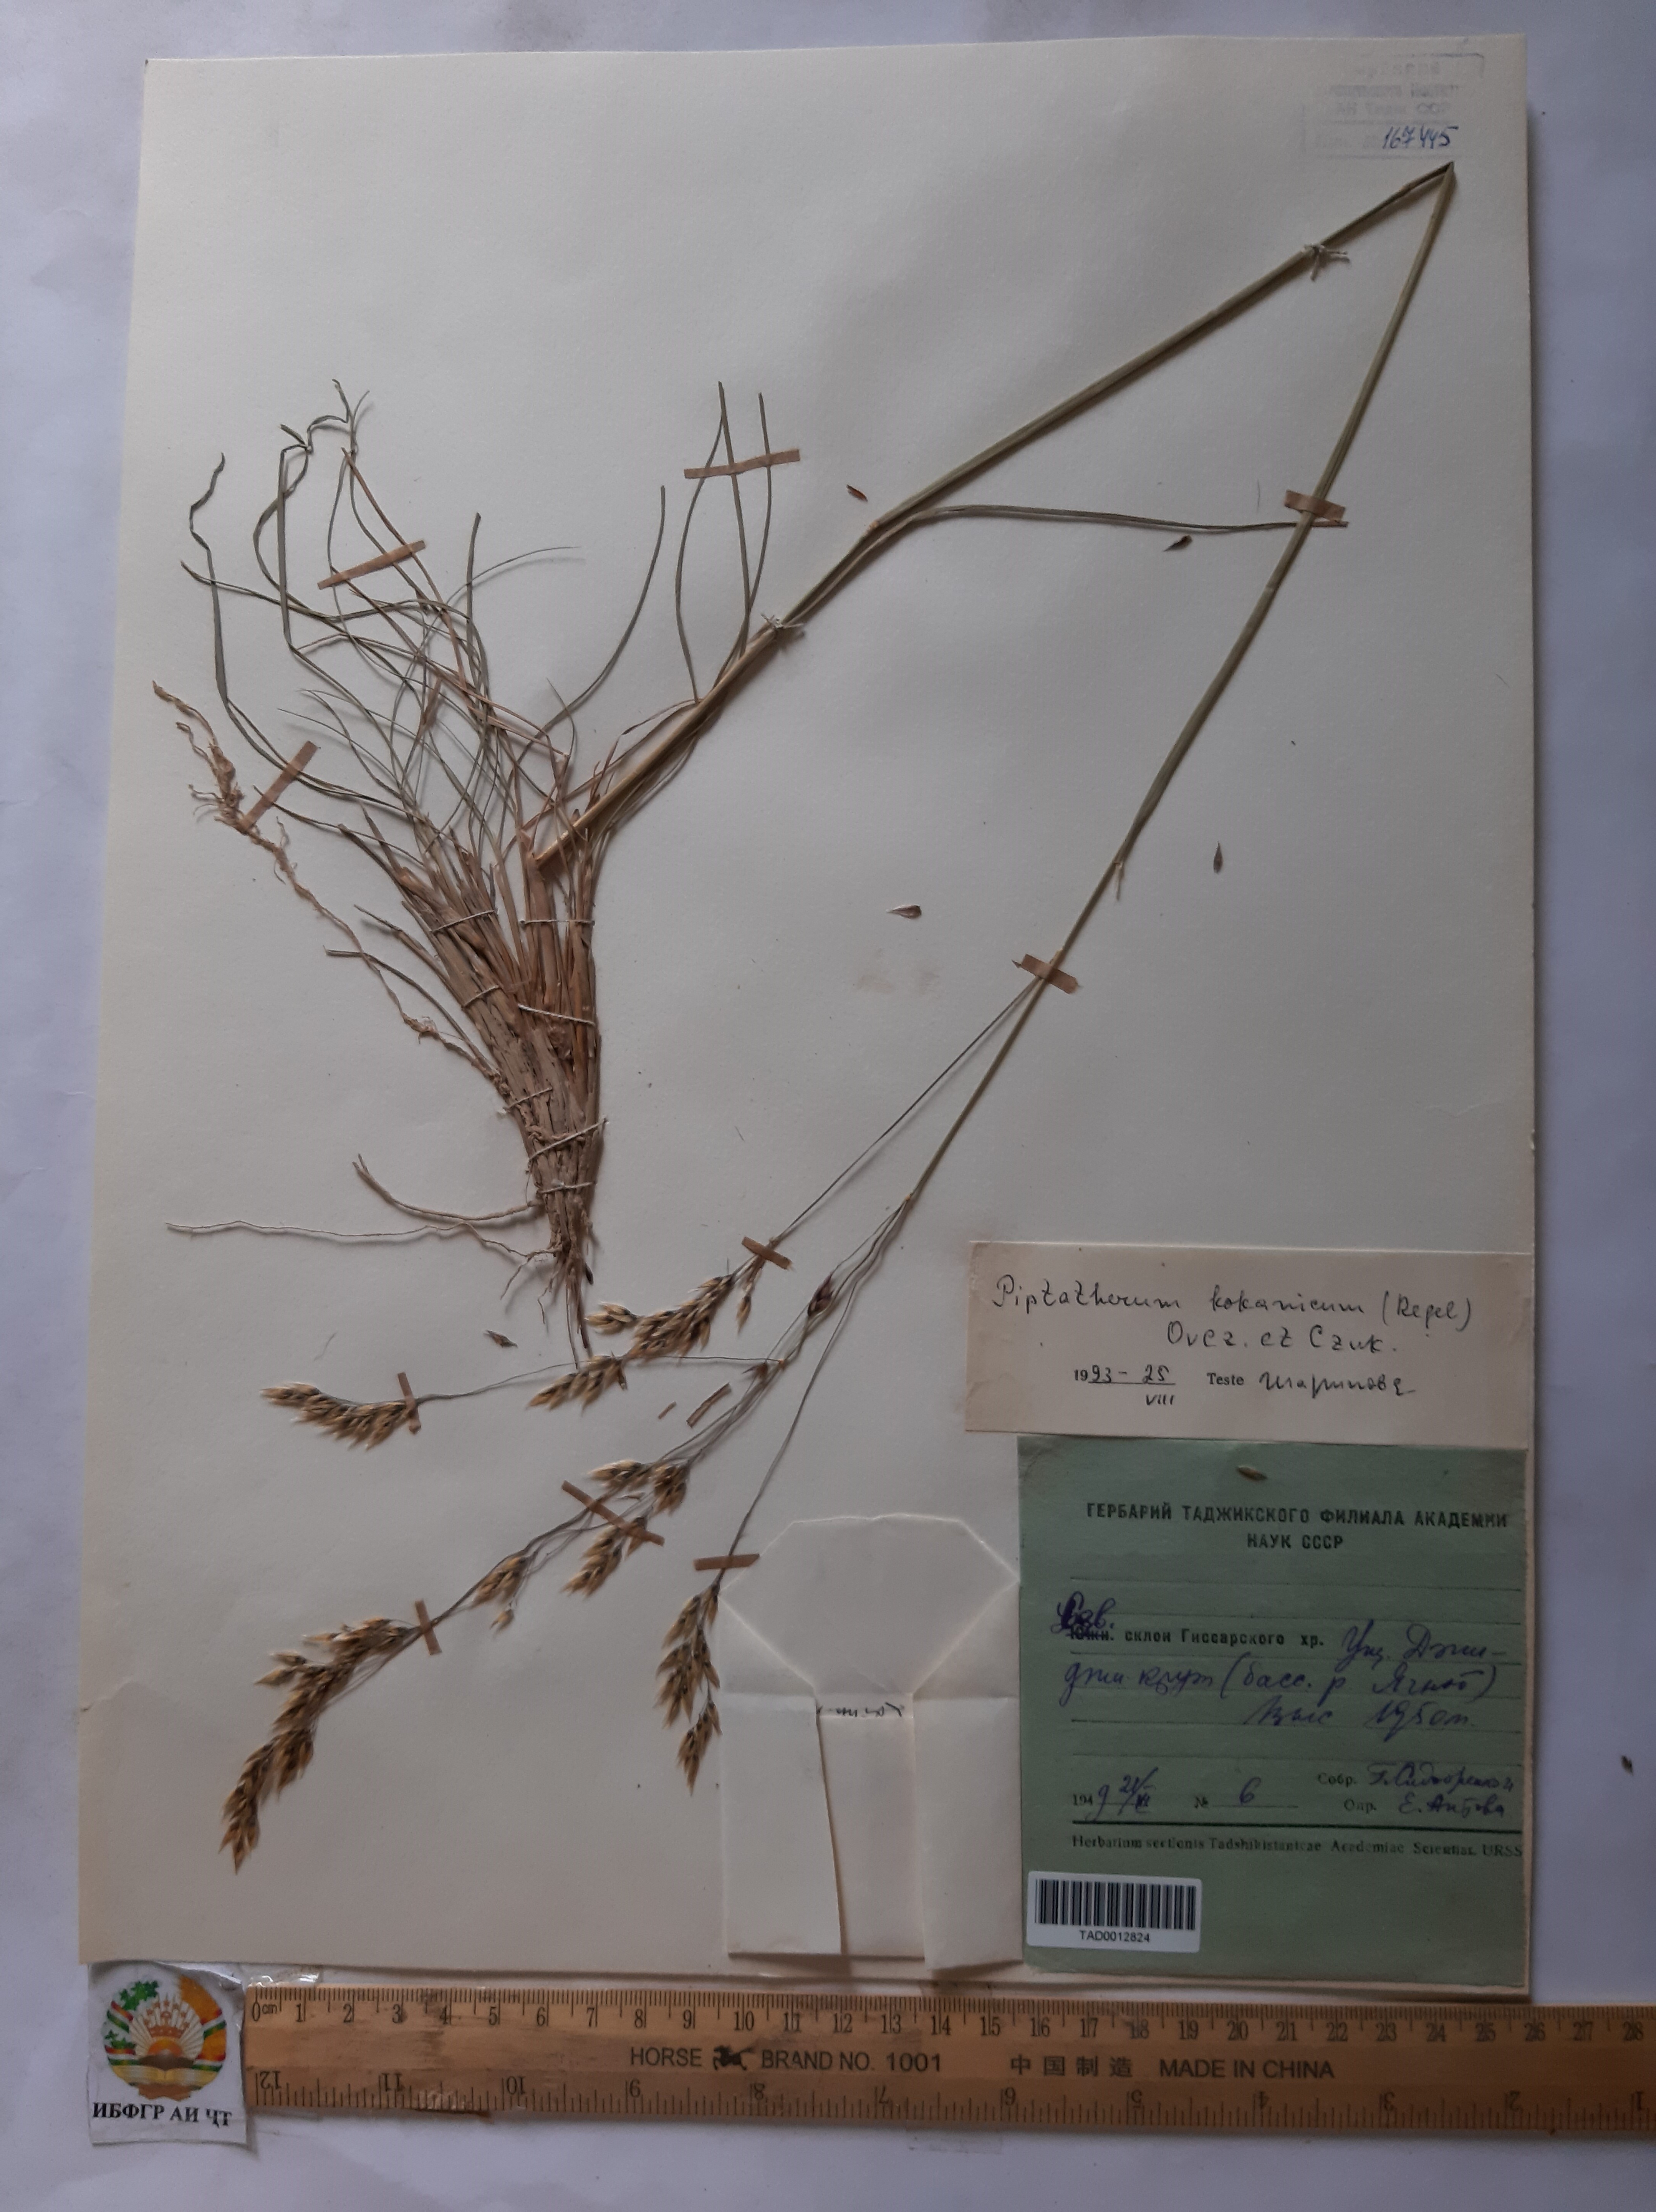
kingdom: Plantae
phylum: Tracheophyta
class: Liliopsida
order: Poales
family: Poaceae
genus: Piptatherum
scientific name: Piptatherum songaricum
